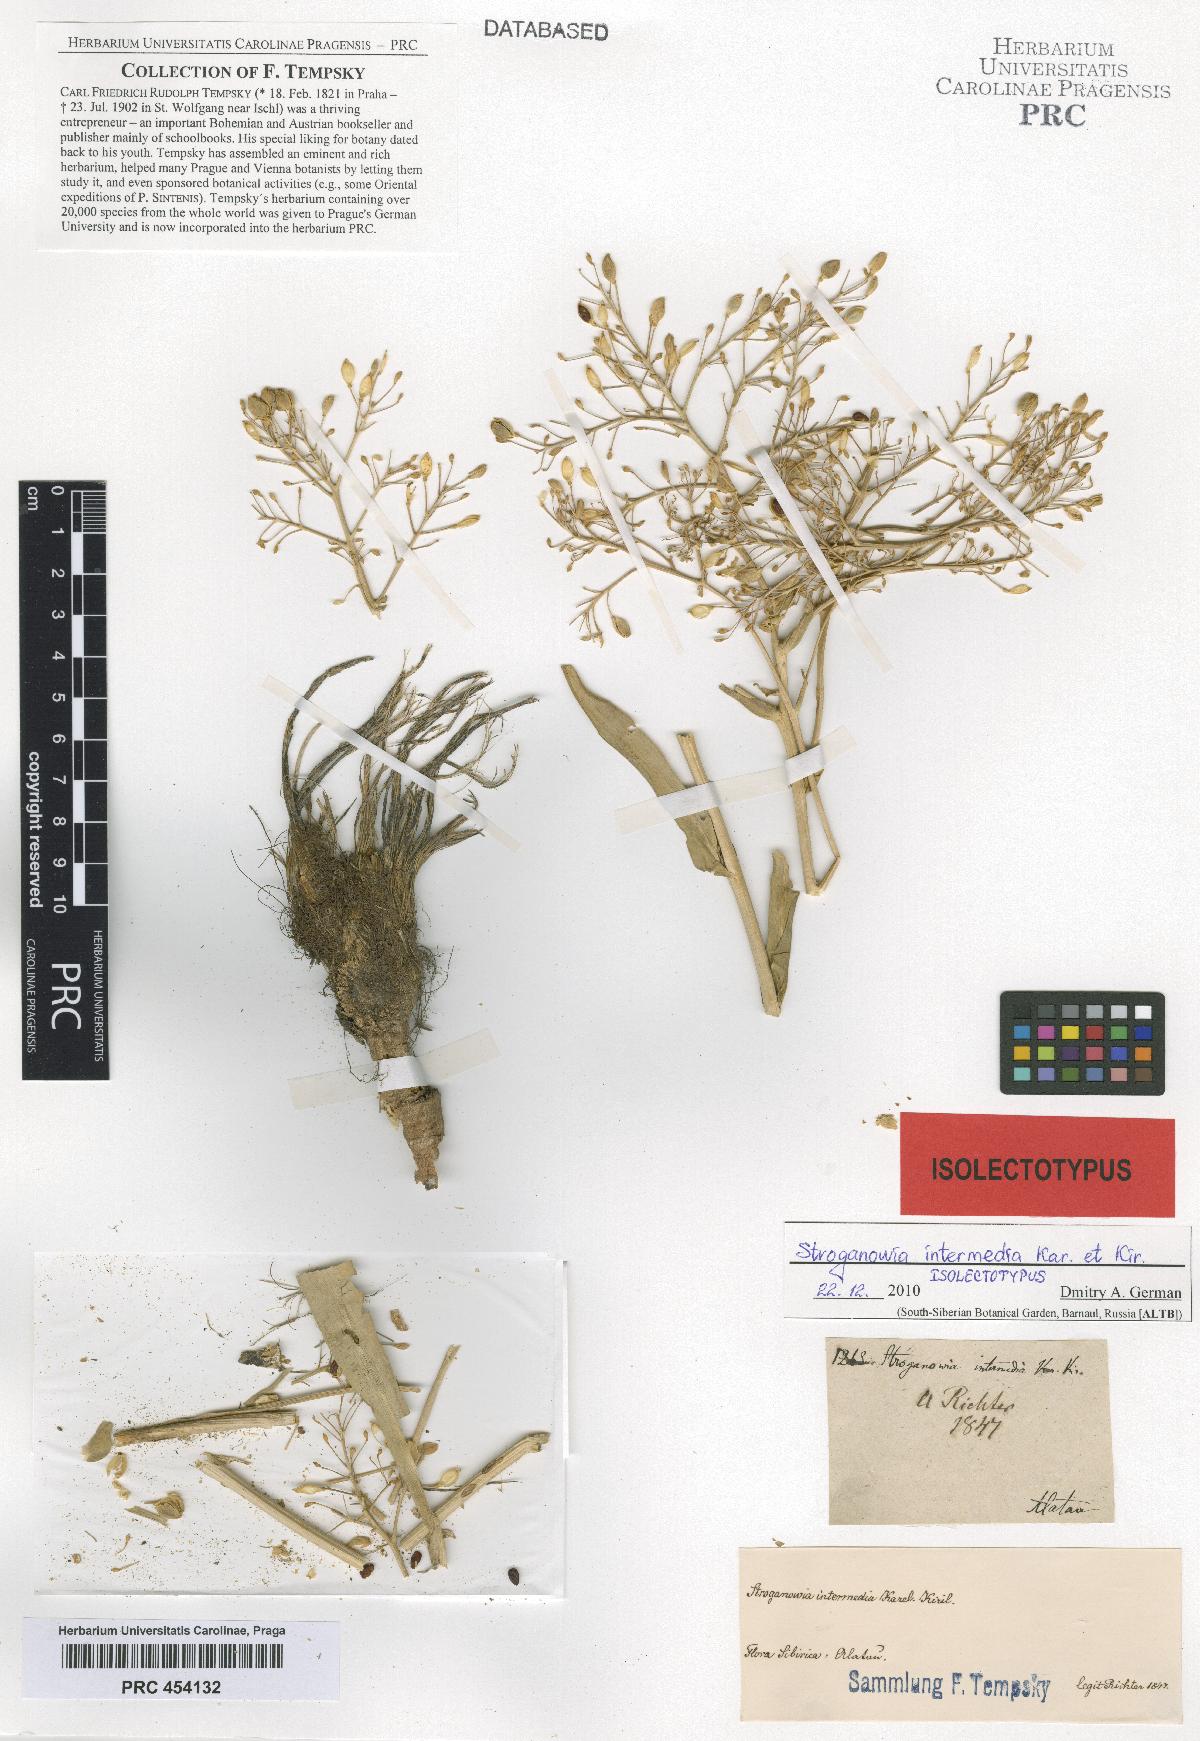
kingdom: Plantae
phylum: Tracheophyta
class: Magnoliopsida
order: Brassicales
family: Brassicaceae
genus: Lepidium
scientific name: Lepidium karelinianum
